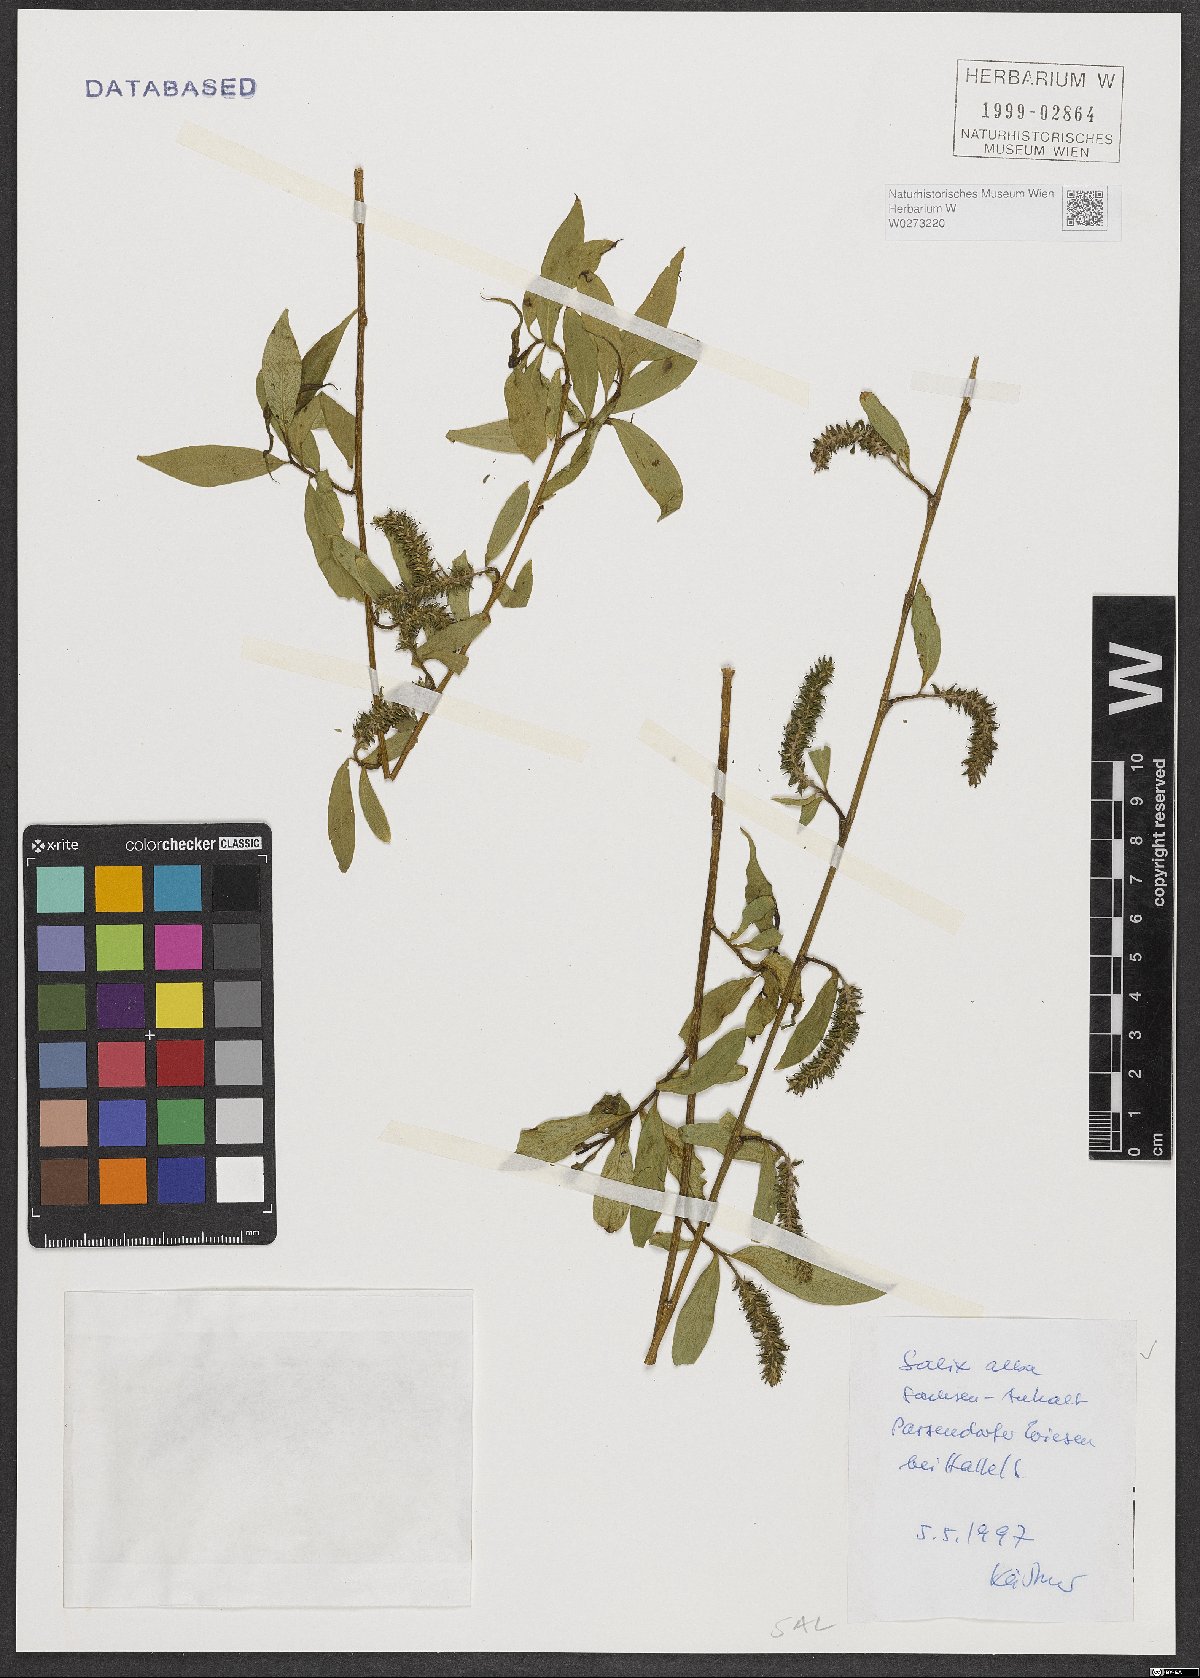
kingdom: Plantae
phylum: Tracheophyta
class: Magnoliopsida
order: Malpighiales
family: Salicaceae
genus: Salix
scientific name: Salix alba
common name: White willow
